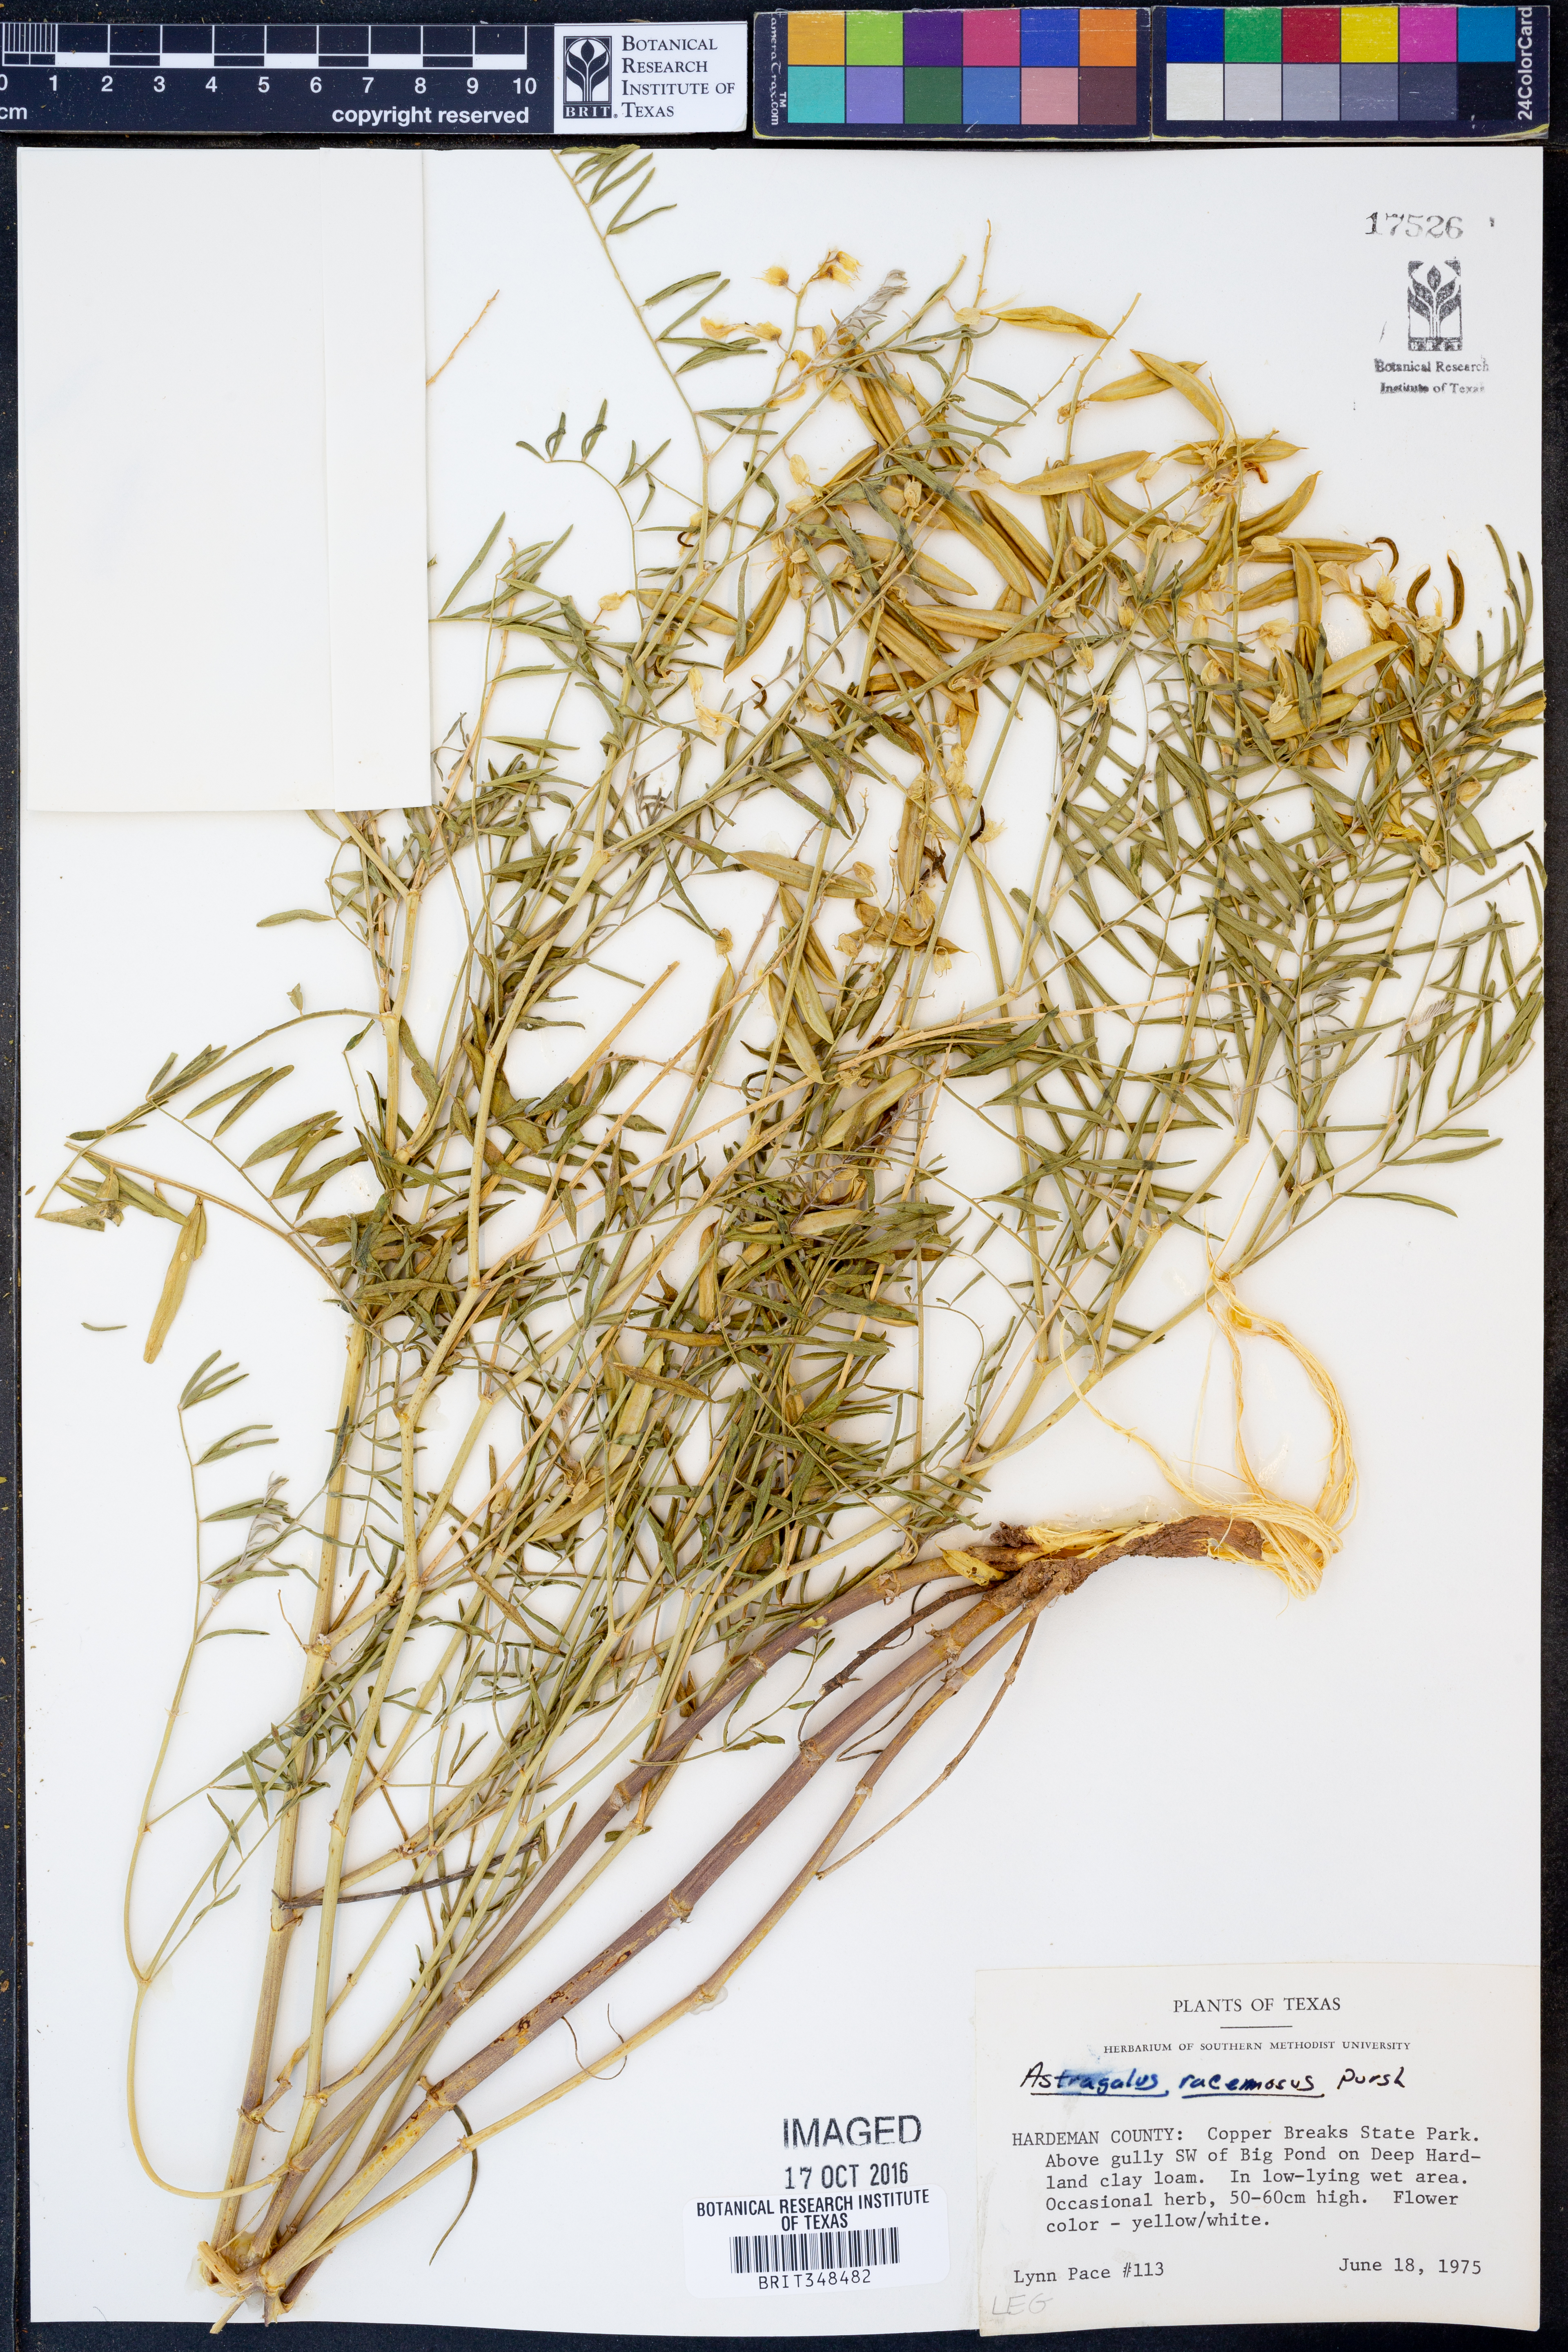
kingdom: Plantae
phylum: Tracheophyta
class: Magnoliopsida
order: Fabales
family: Fabaceae
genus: Astragalus
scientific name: Astragalus racemosus
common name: Alkali milk-vetch
